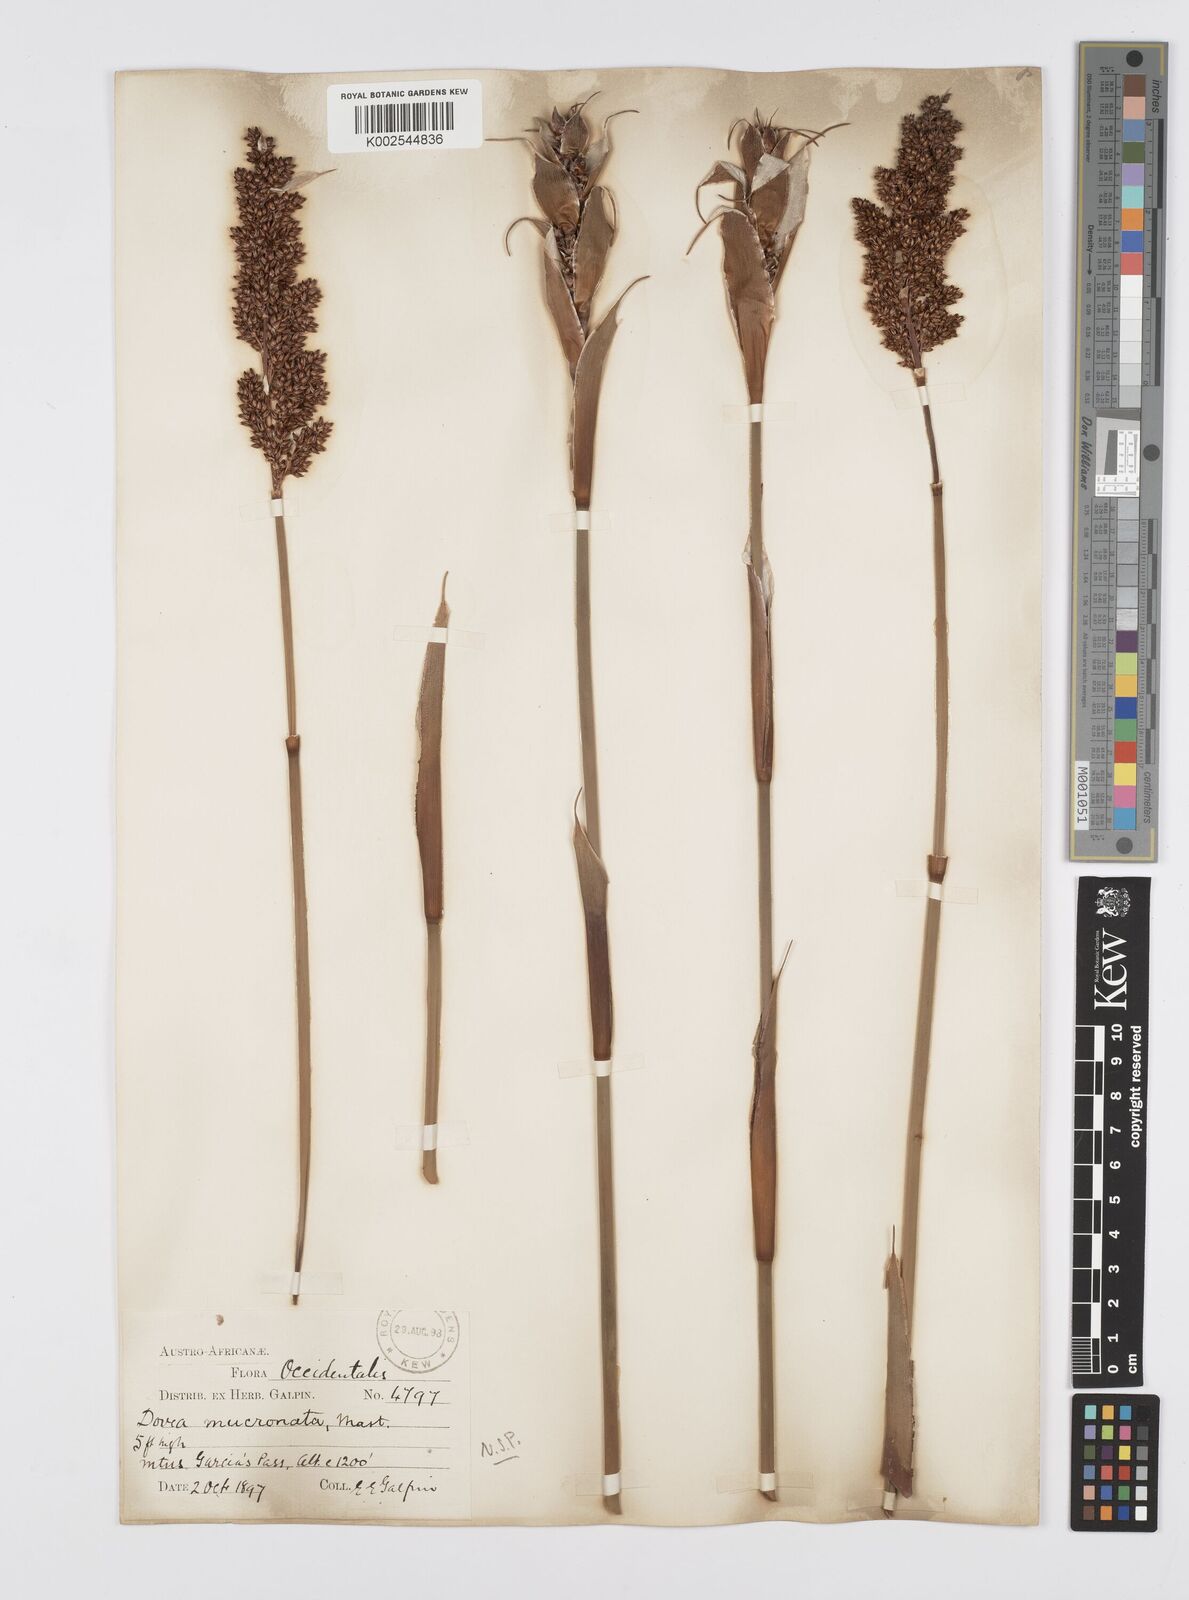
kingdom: Plantae
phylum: Tracheophyta
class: Liliopsida
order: Poales
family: Restionaceae
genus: Elegia
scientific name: Elegia mucronata
